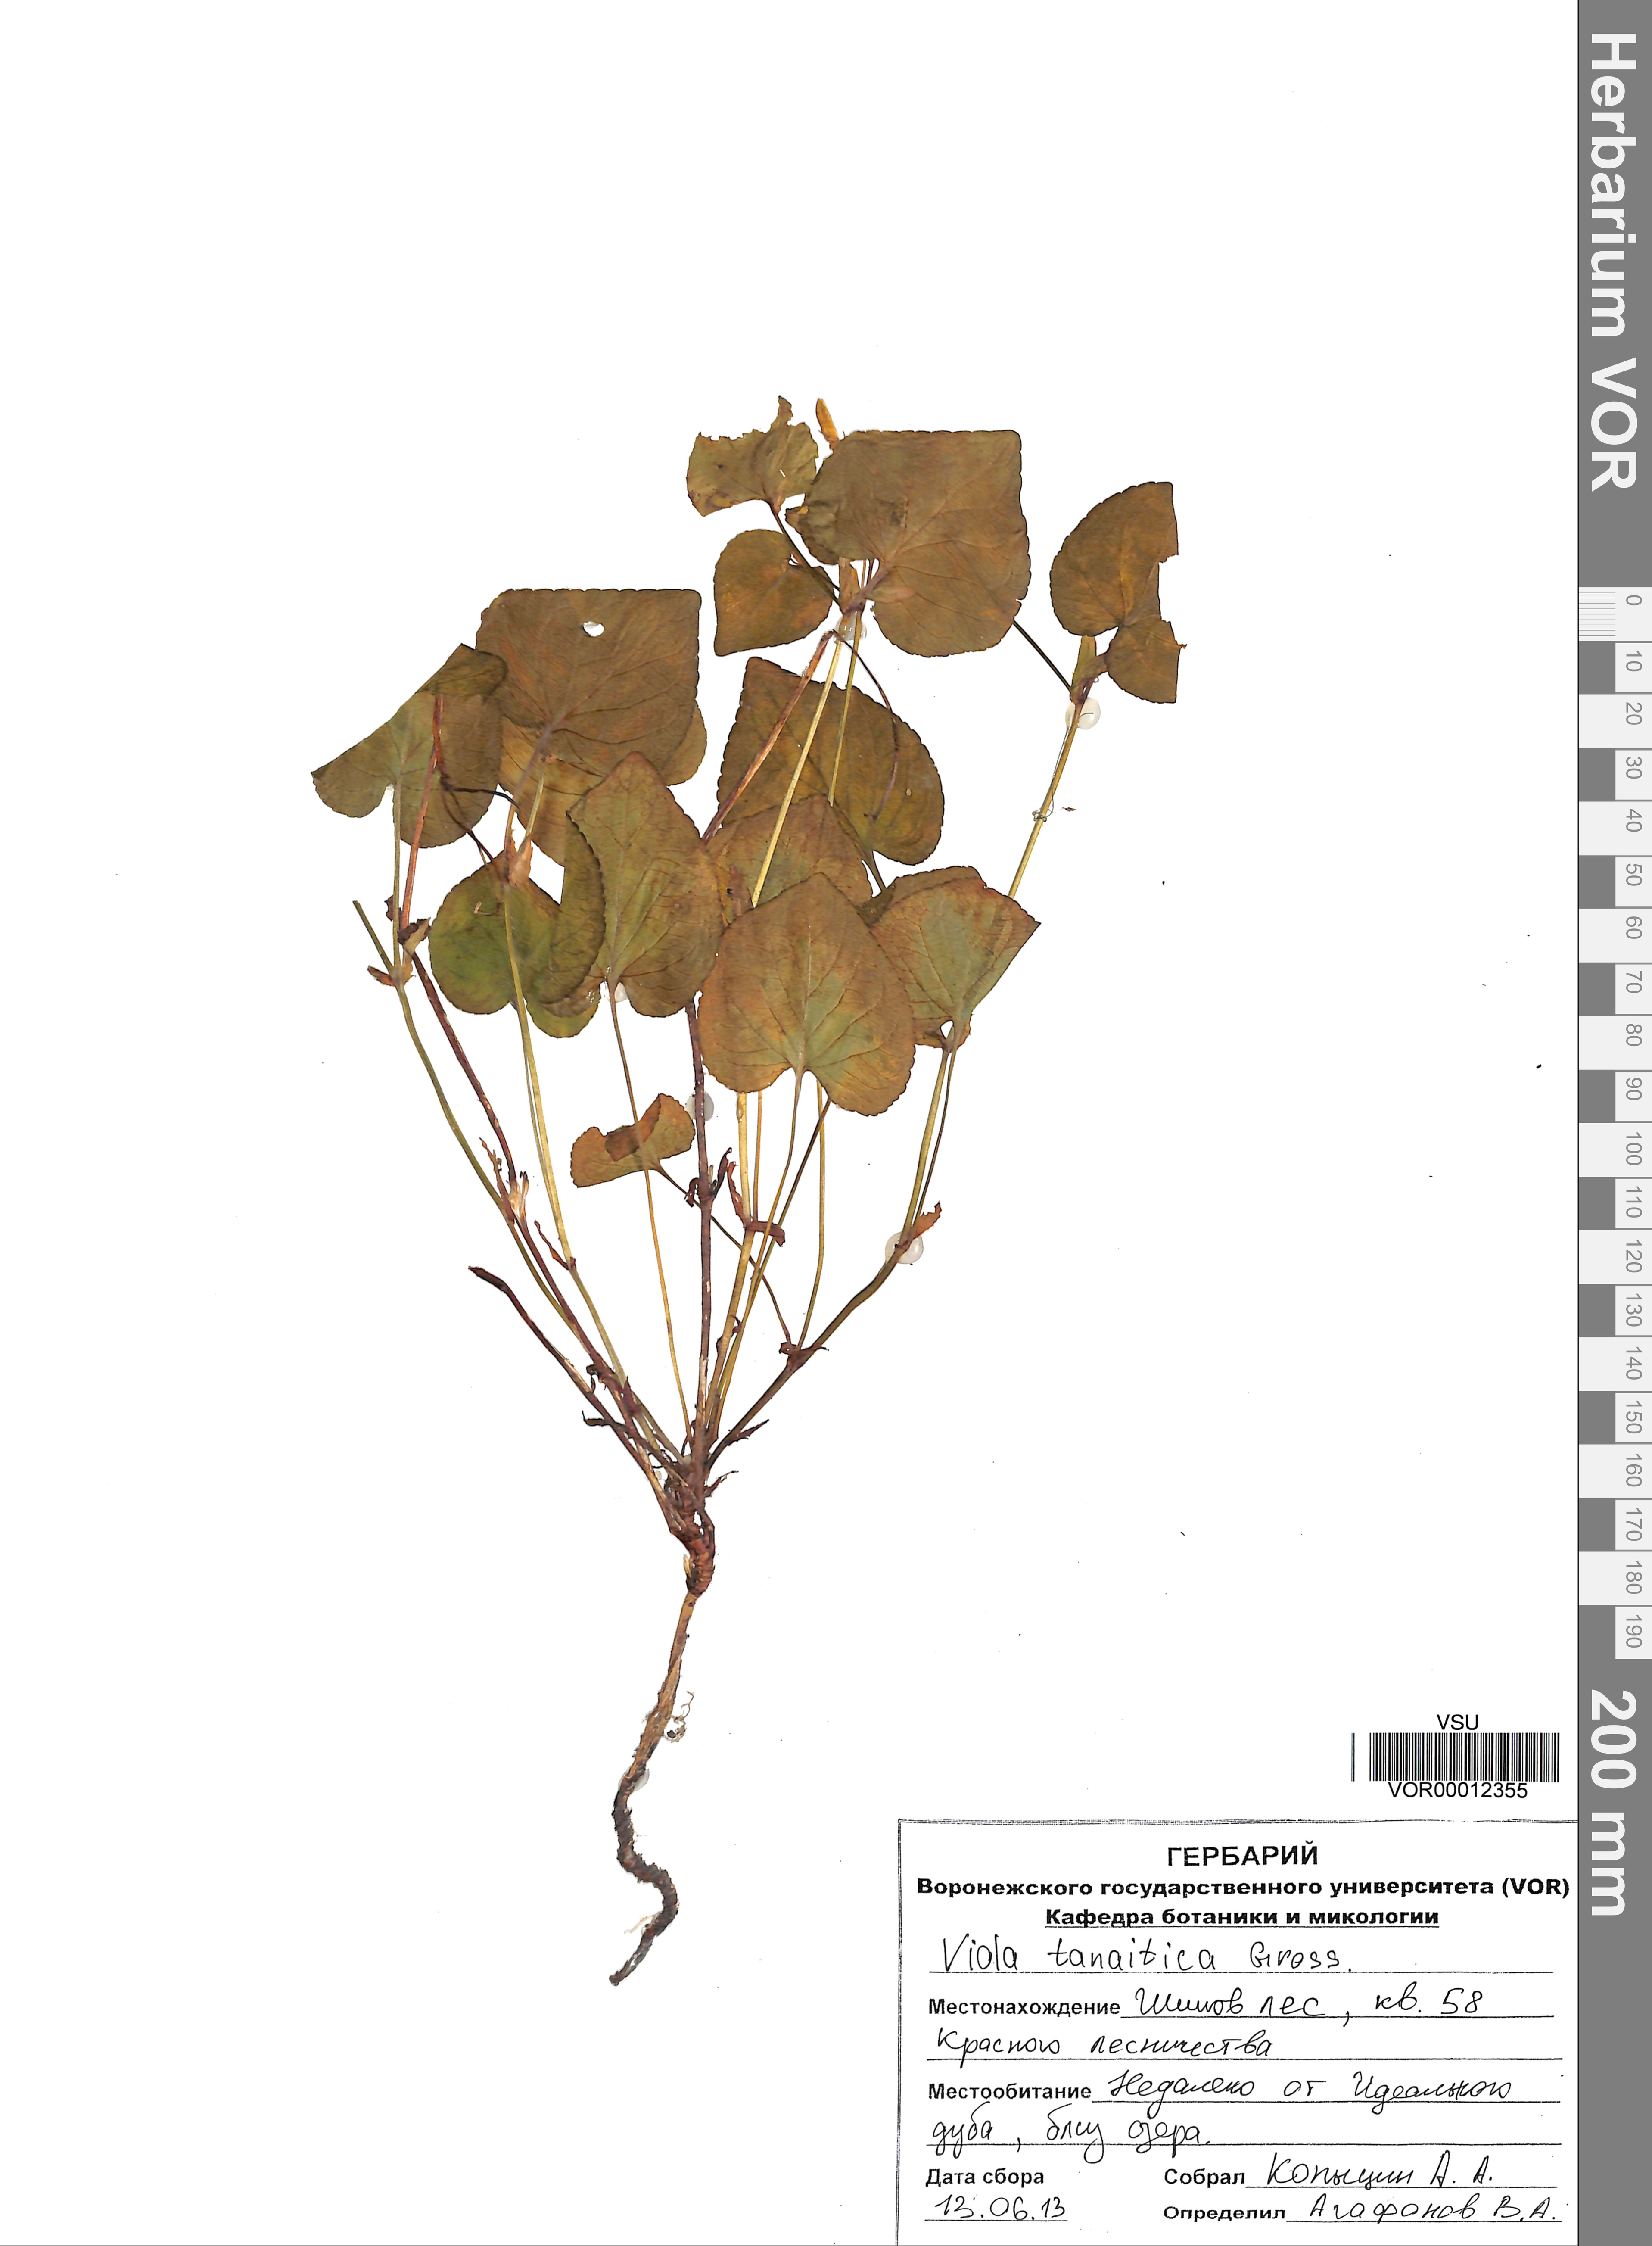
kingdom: Plantae
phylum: Tracheophyta
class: Magnoliopsida
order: Malpighiales
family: Violaceae
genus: Viola
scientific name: Viola tanaitica
